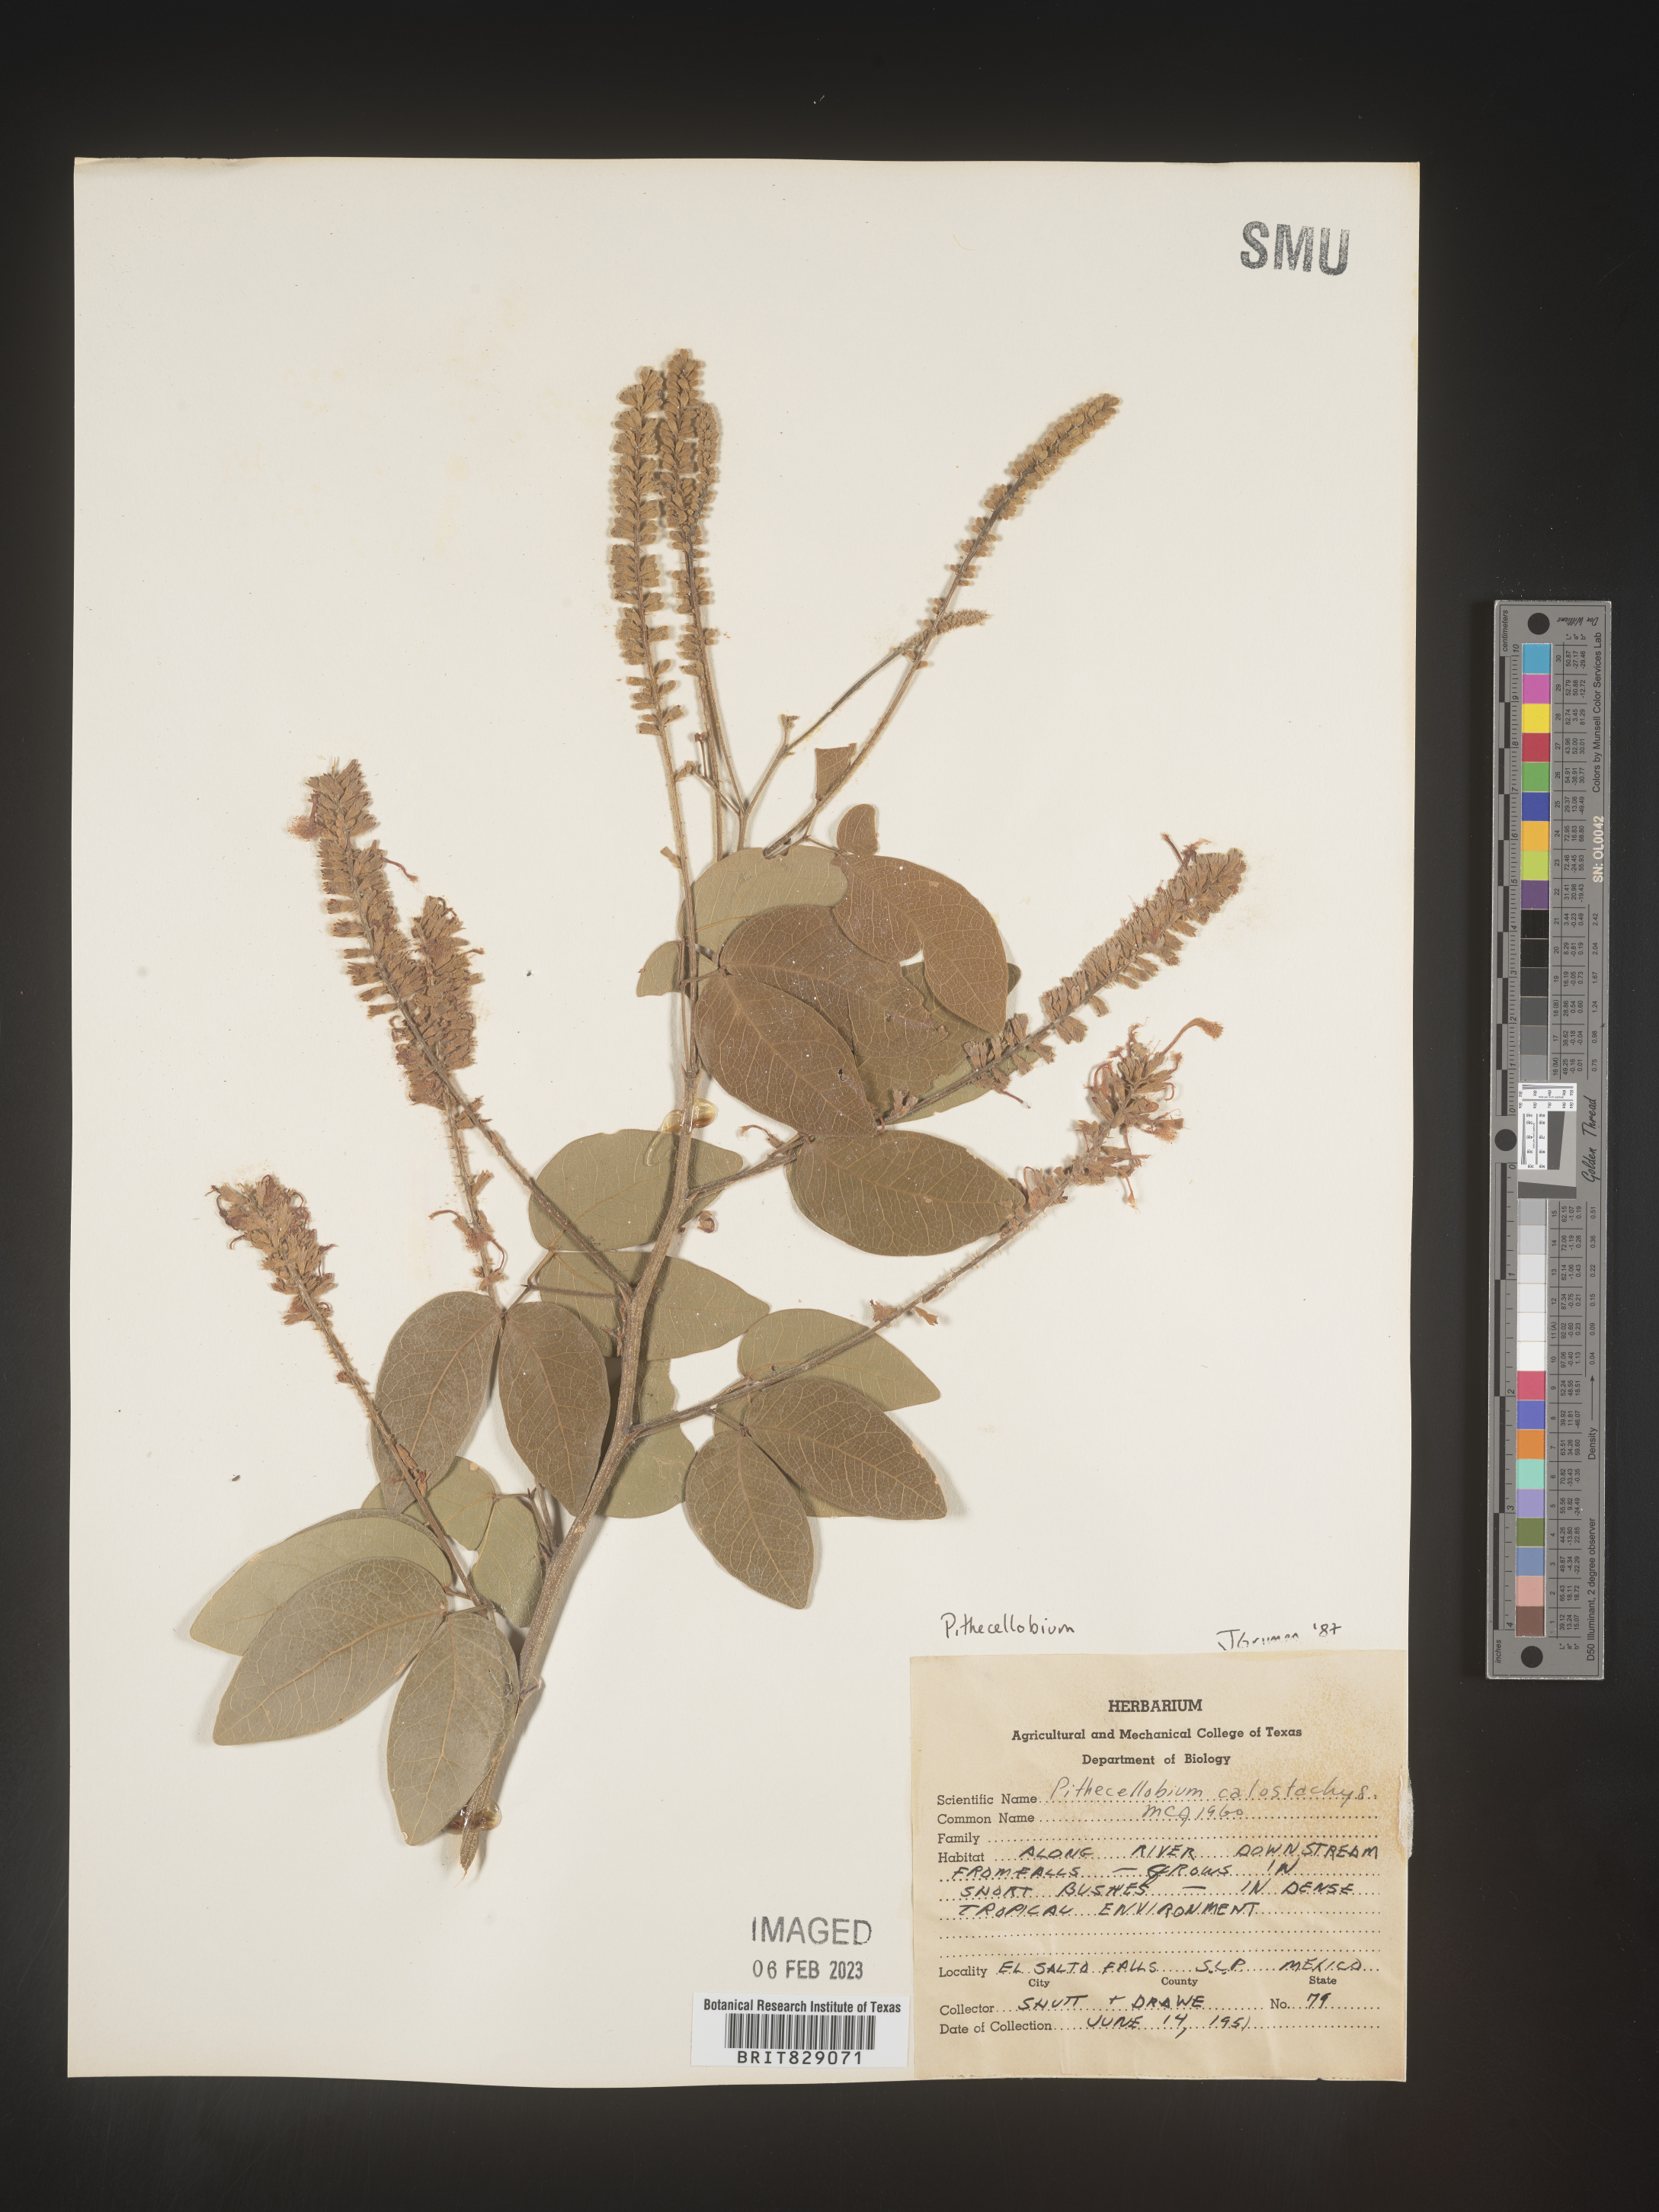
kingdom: Plantae
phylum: Tracheophyta
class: Magnoliopsida
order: Fabales
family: Fabaceae
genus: Pithecellobium
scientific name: Pithecellobium
